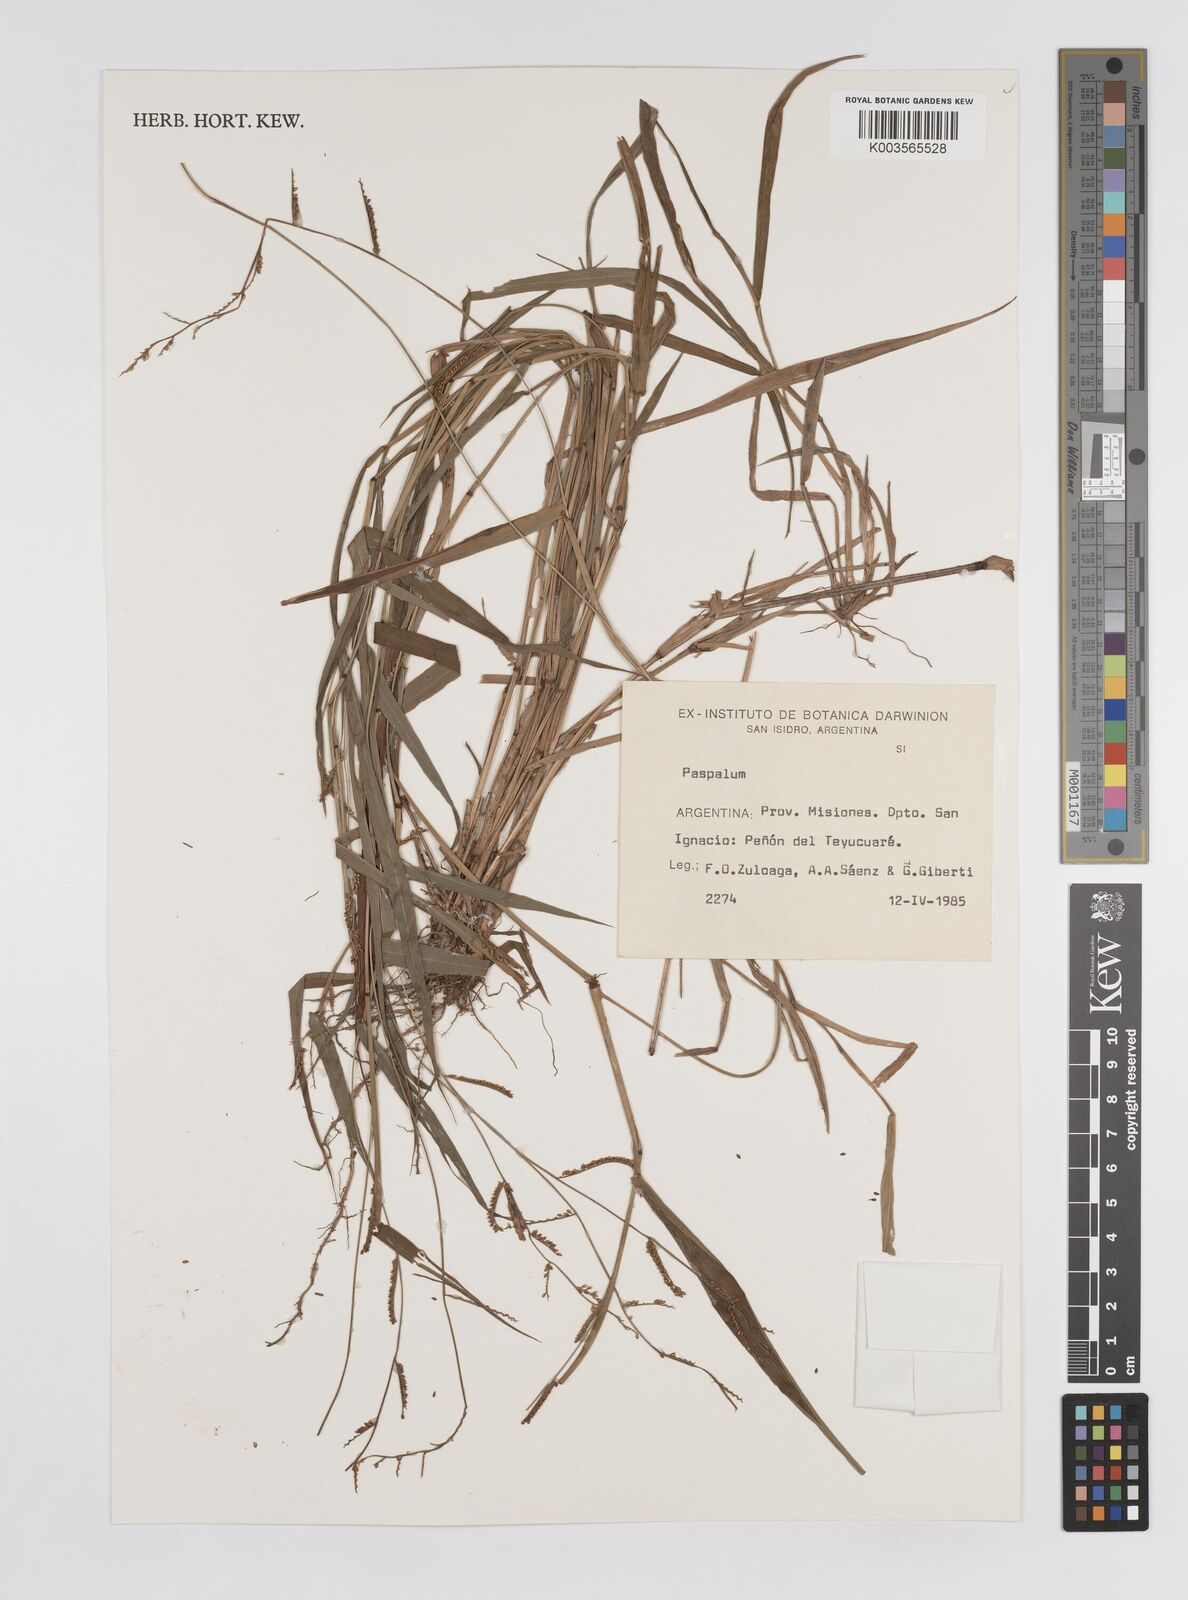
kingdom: Plantae
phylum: Tracheophyta
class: Liliopsida
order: Poales
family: Poaceae
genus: Paspalum
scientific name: Paspalum
